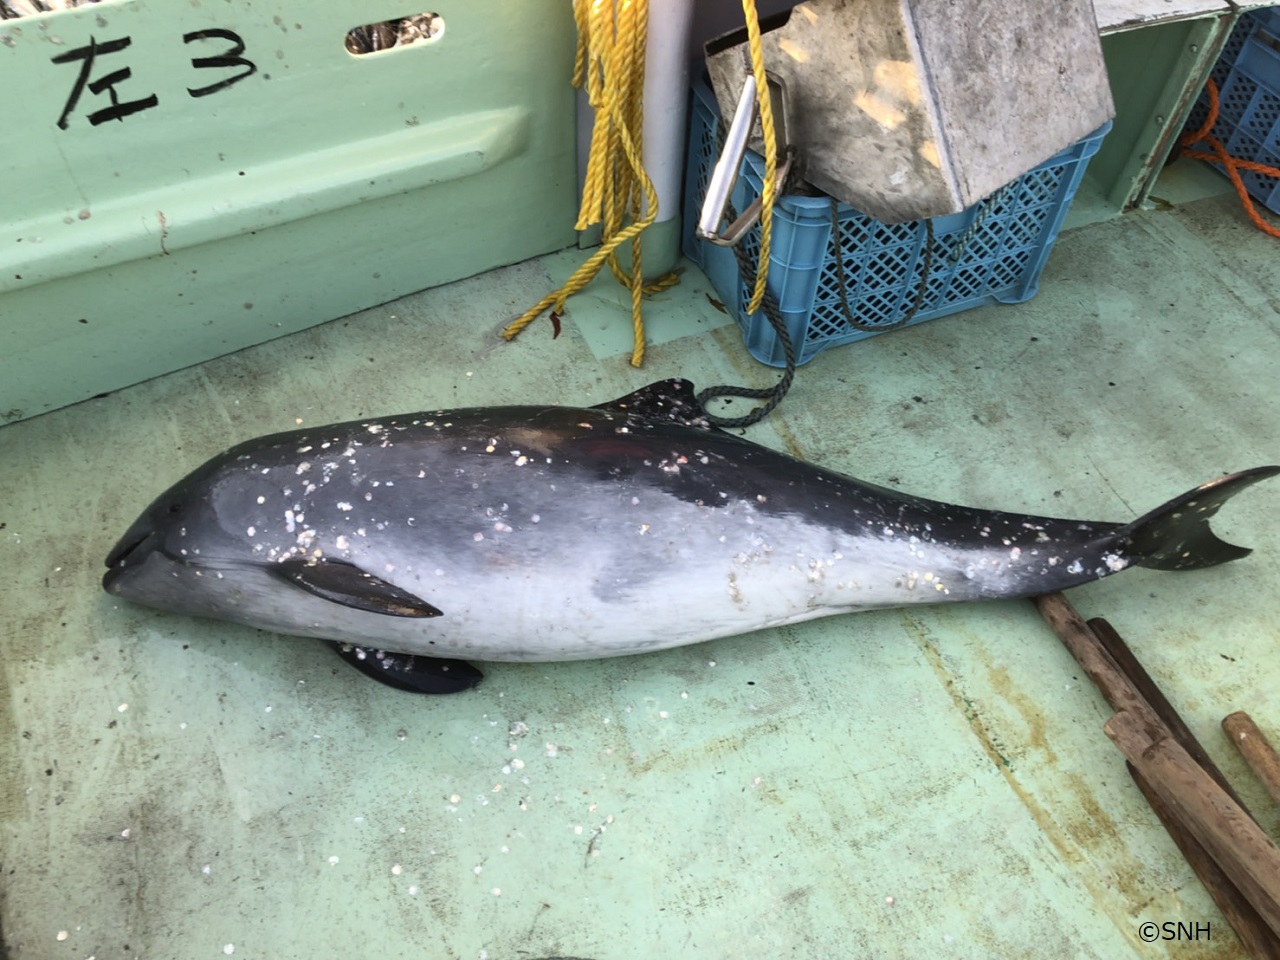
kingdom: Animalia
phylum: Chordata
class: Mammalia
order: Cetacea
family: Phocoenidae
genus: Phocoena
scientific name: Phocoena phocoena
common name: Harbour porpoise
